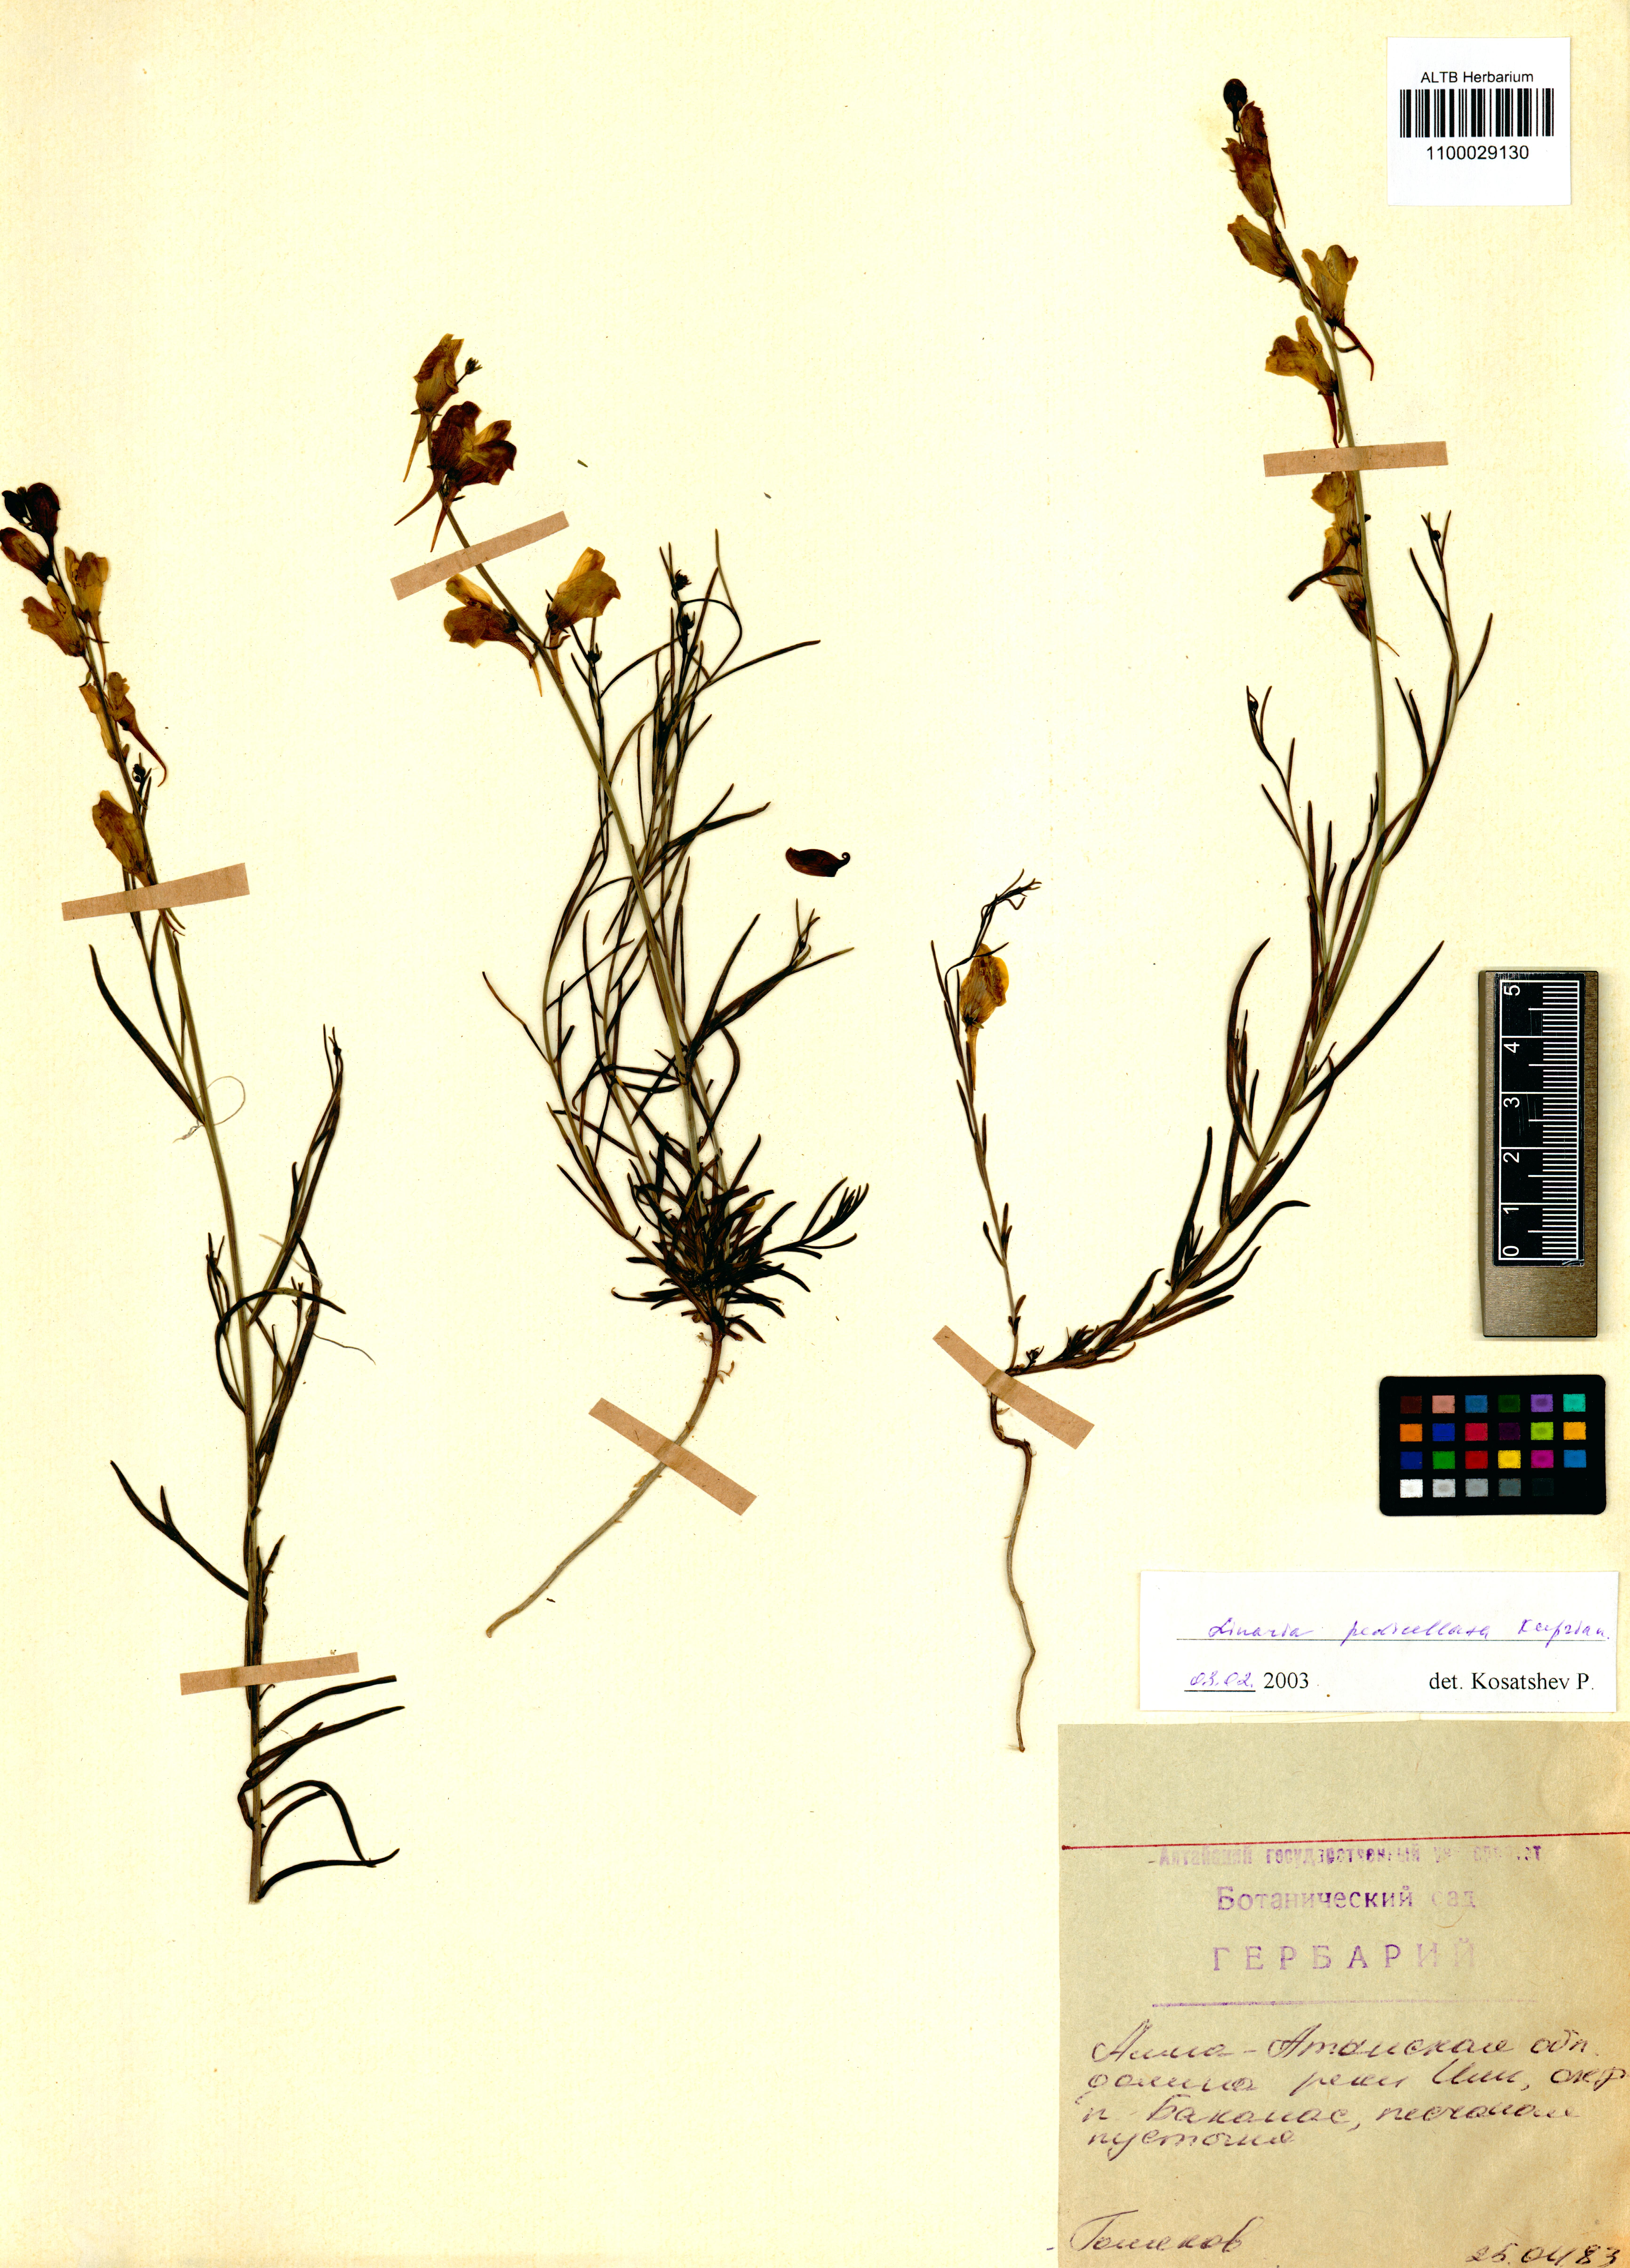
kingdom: Plantae
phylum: Tracheophyta
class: Magnoliopsida
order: Lamiales
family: Plantaginaceae
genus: Linaria
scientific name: Linaria pedicellata
